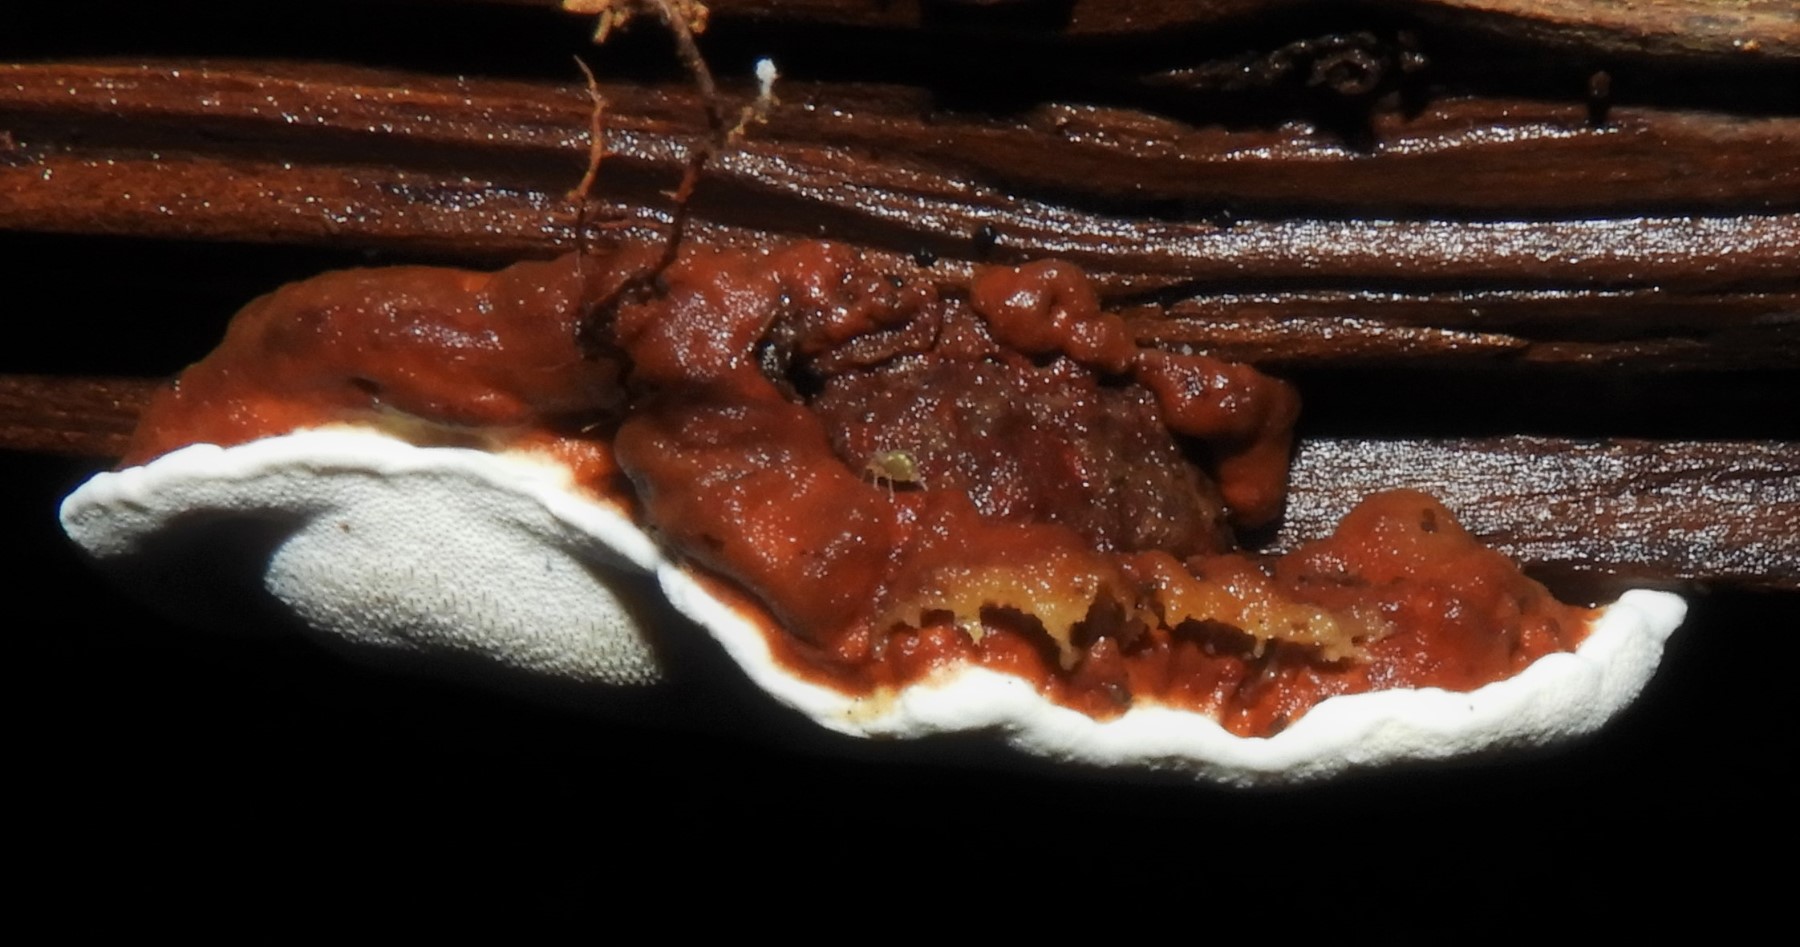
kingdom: Fungi
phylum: Basidiomycota
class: Agaricomycetes
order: Russulales
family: Bondarzewiaceae
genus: Heterobasidion
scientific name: Heterobasidion annosum
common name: almindelig rodfordærver
